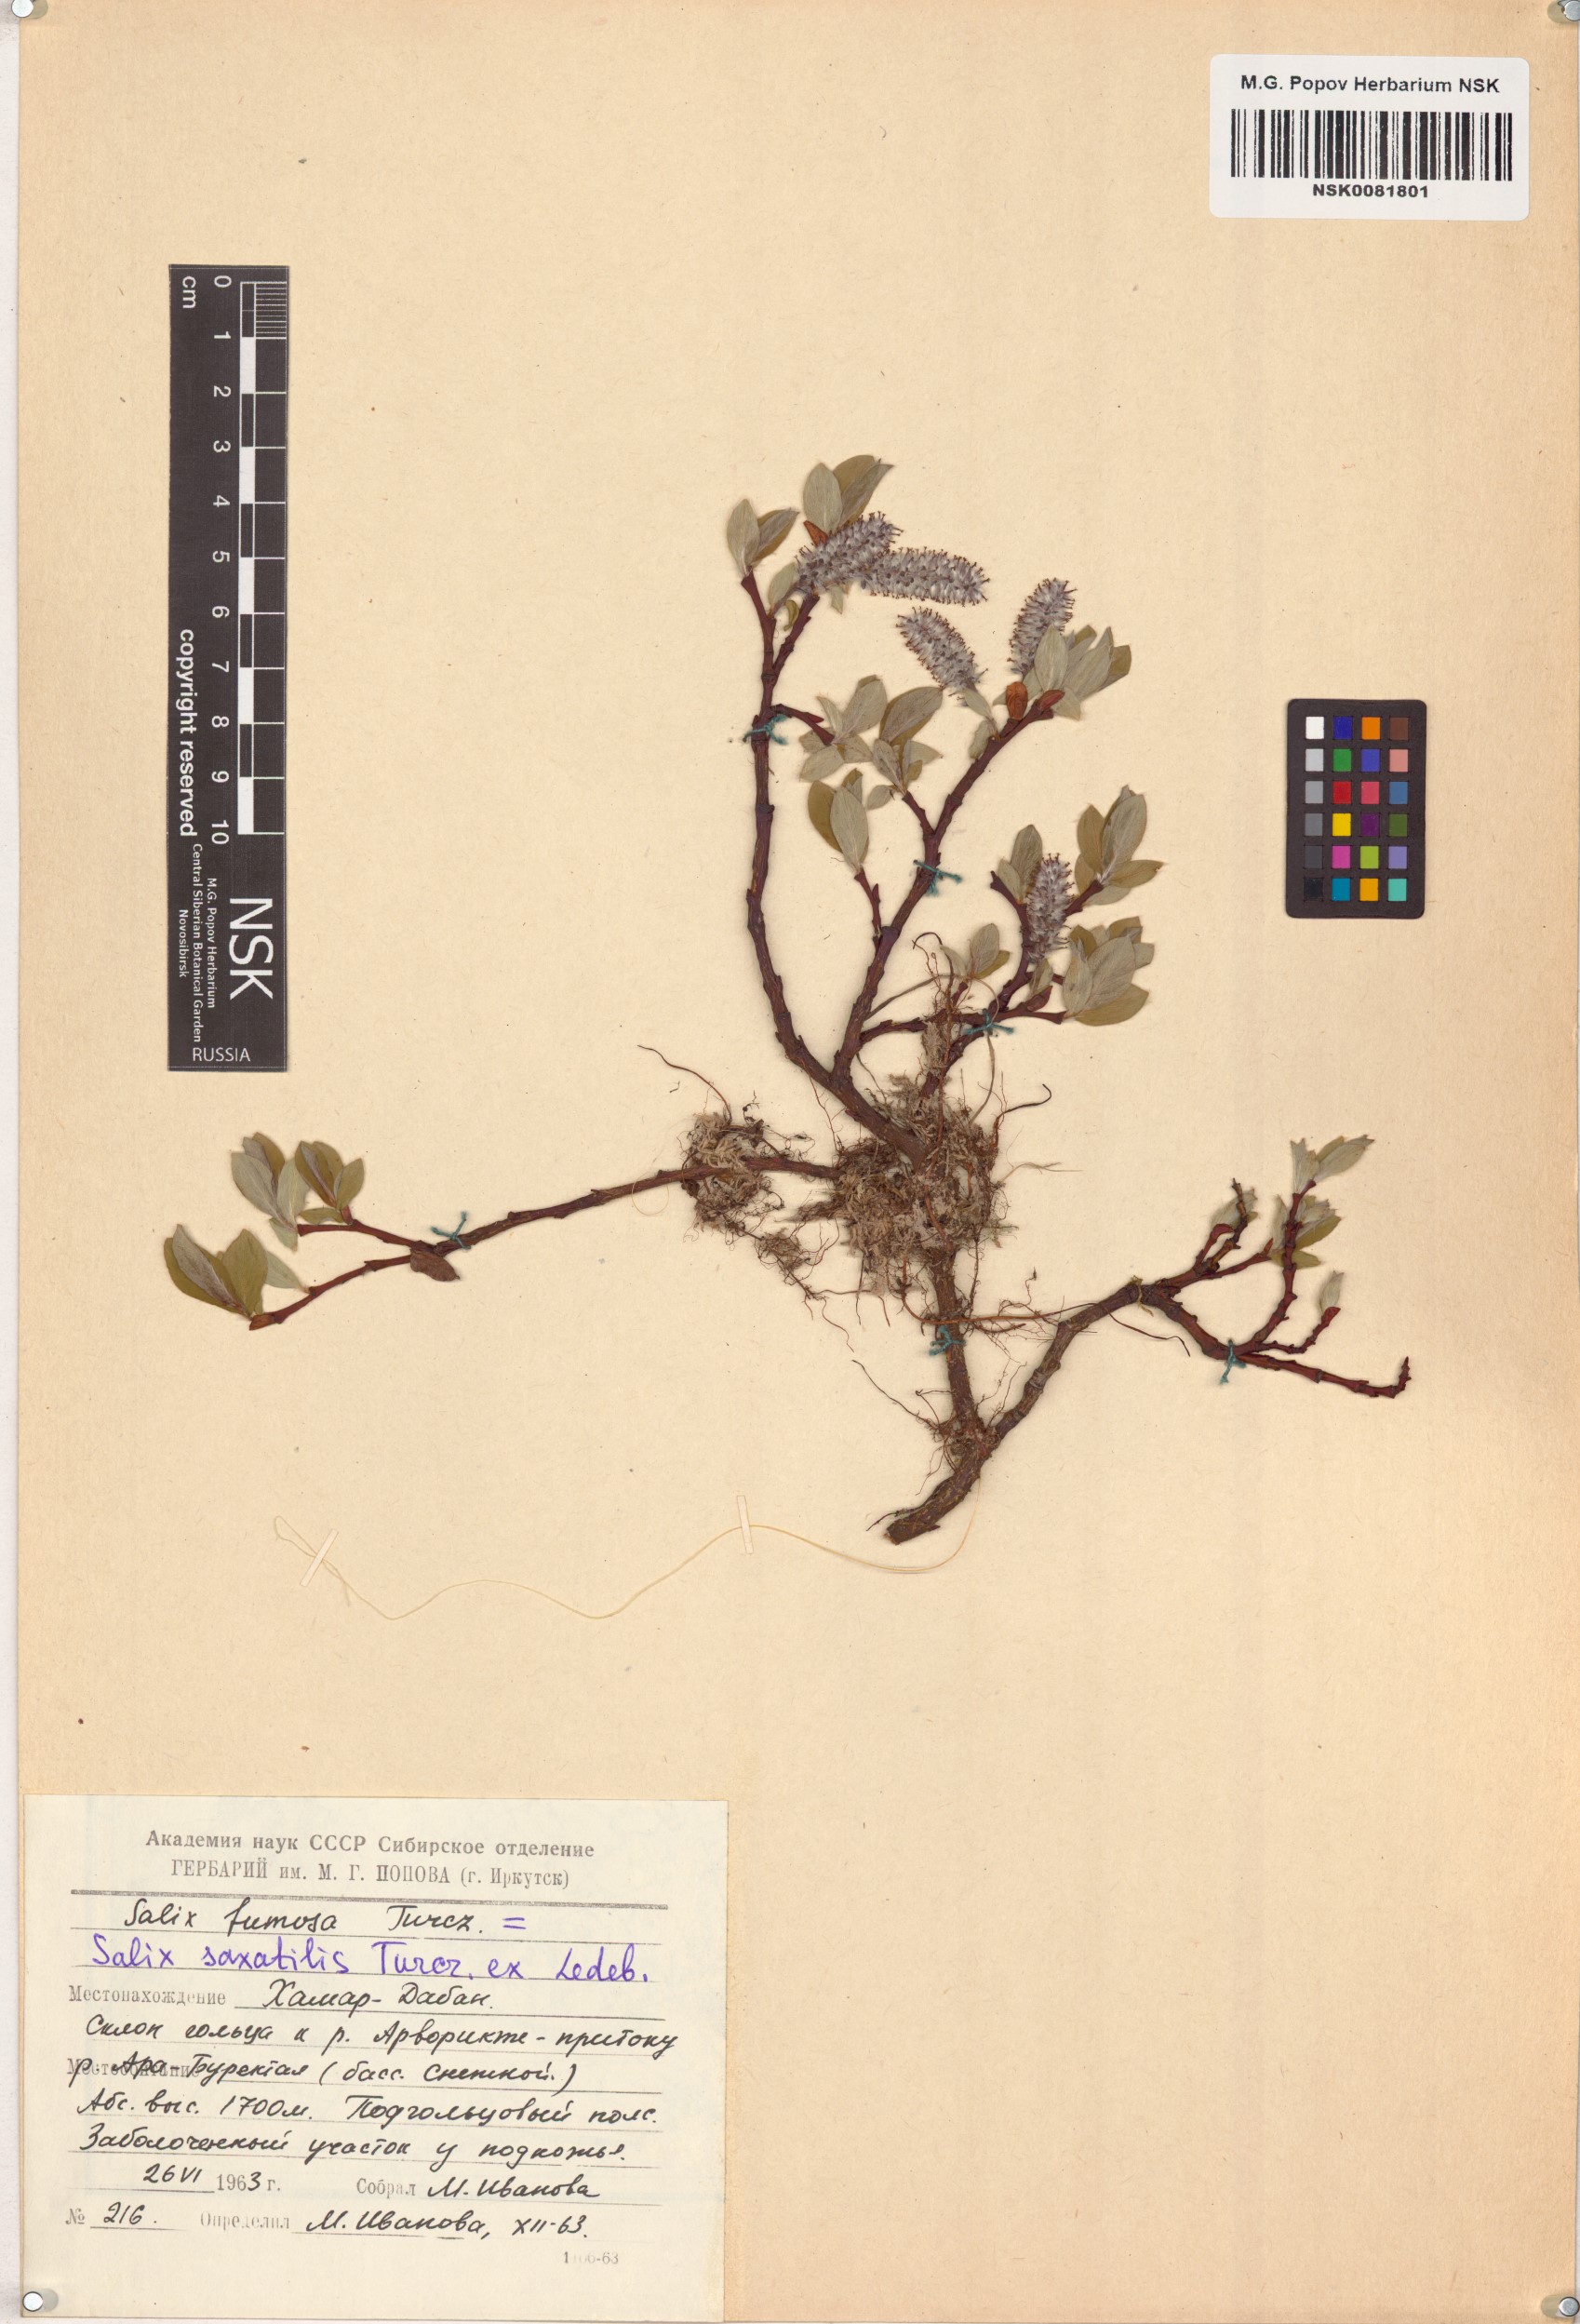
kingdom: Plantae
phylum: Tracheophyta
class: Magnoliopsida
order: Malpighiales
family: Salicaceae
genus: Salix
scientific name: Salix saxatilis
